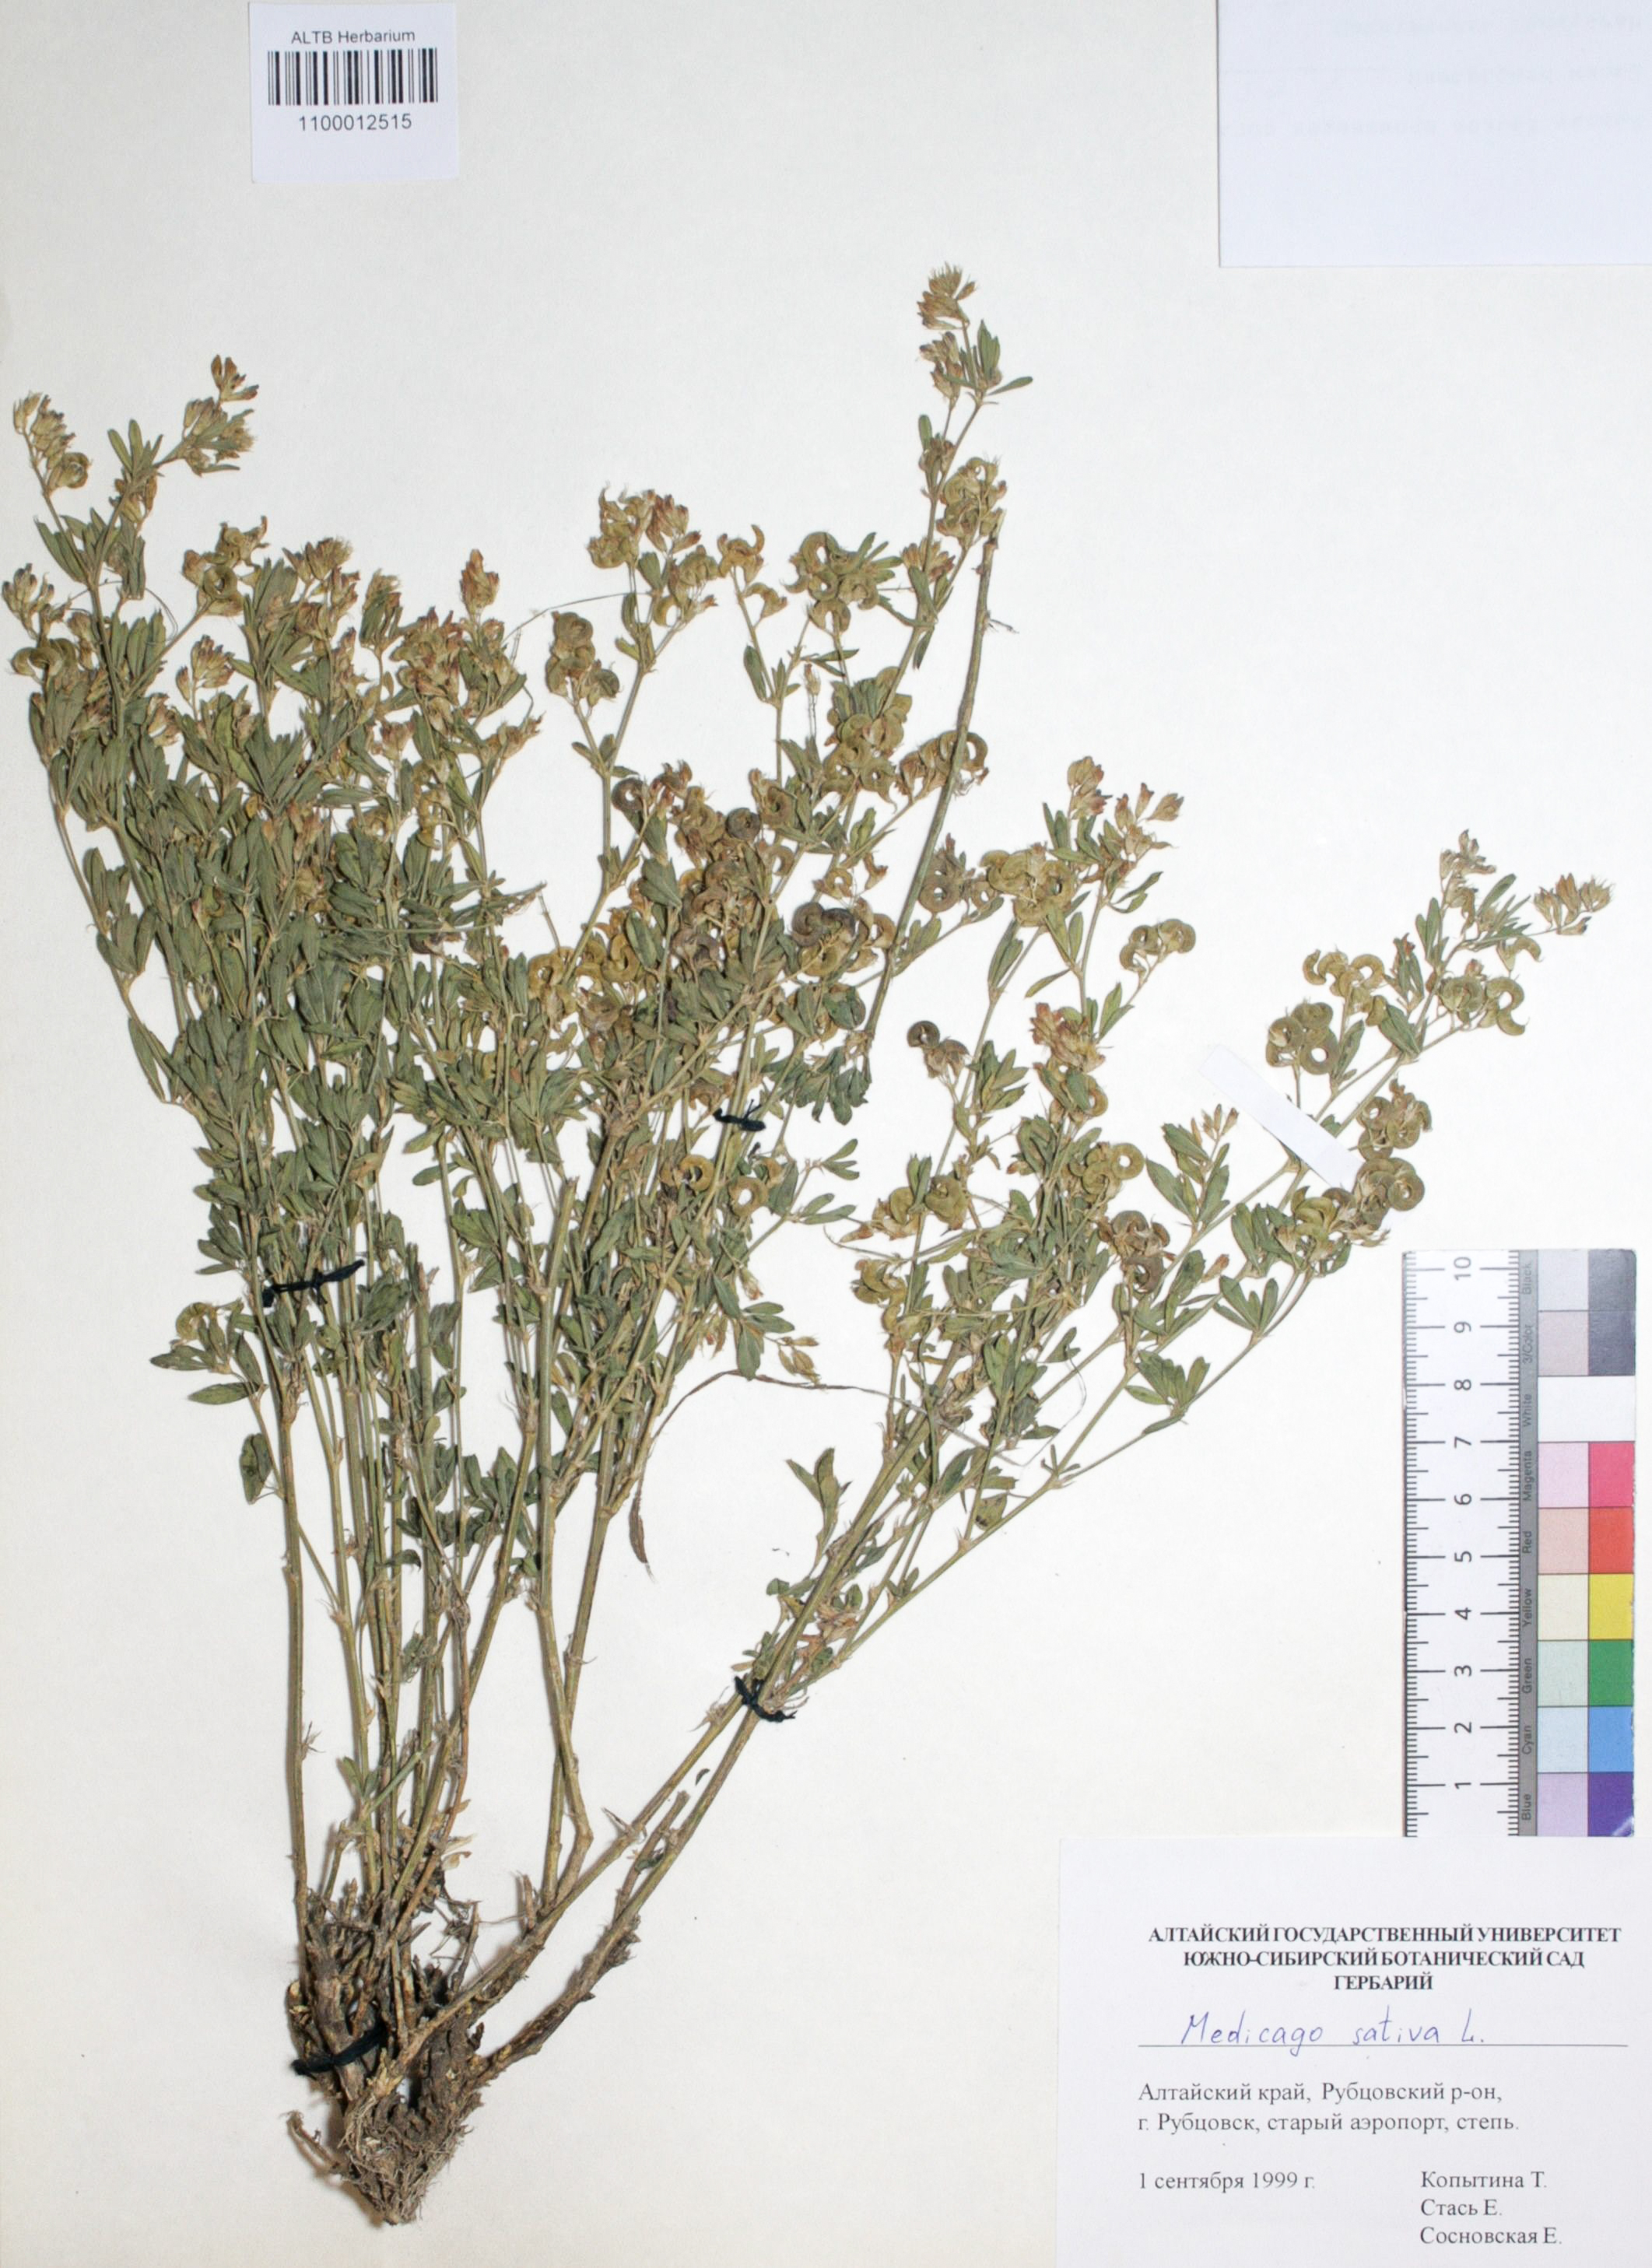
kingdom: Plantae
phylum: Tracheophyta
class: Magnoliopsida
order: Fabales
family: Fabaceae
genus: Medicago
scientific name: Medicago sativa
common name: Alfalfa
